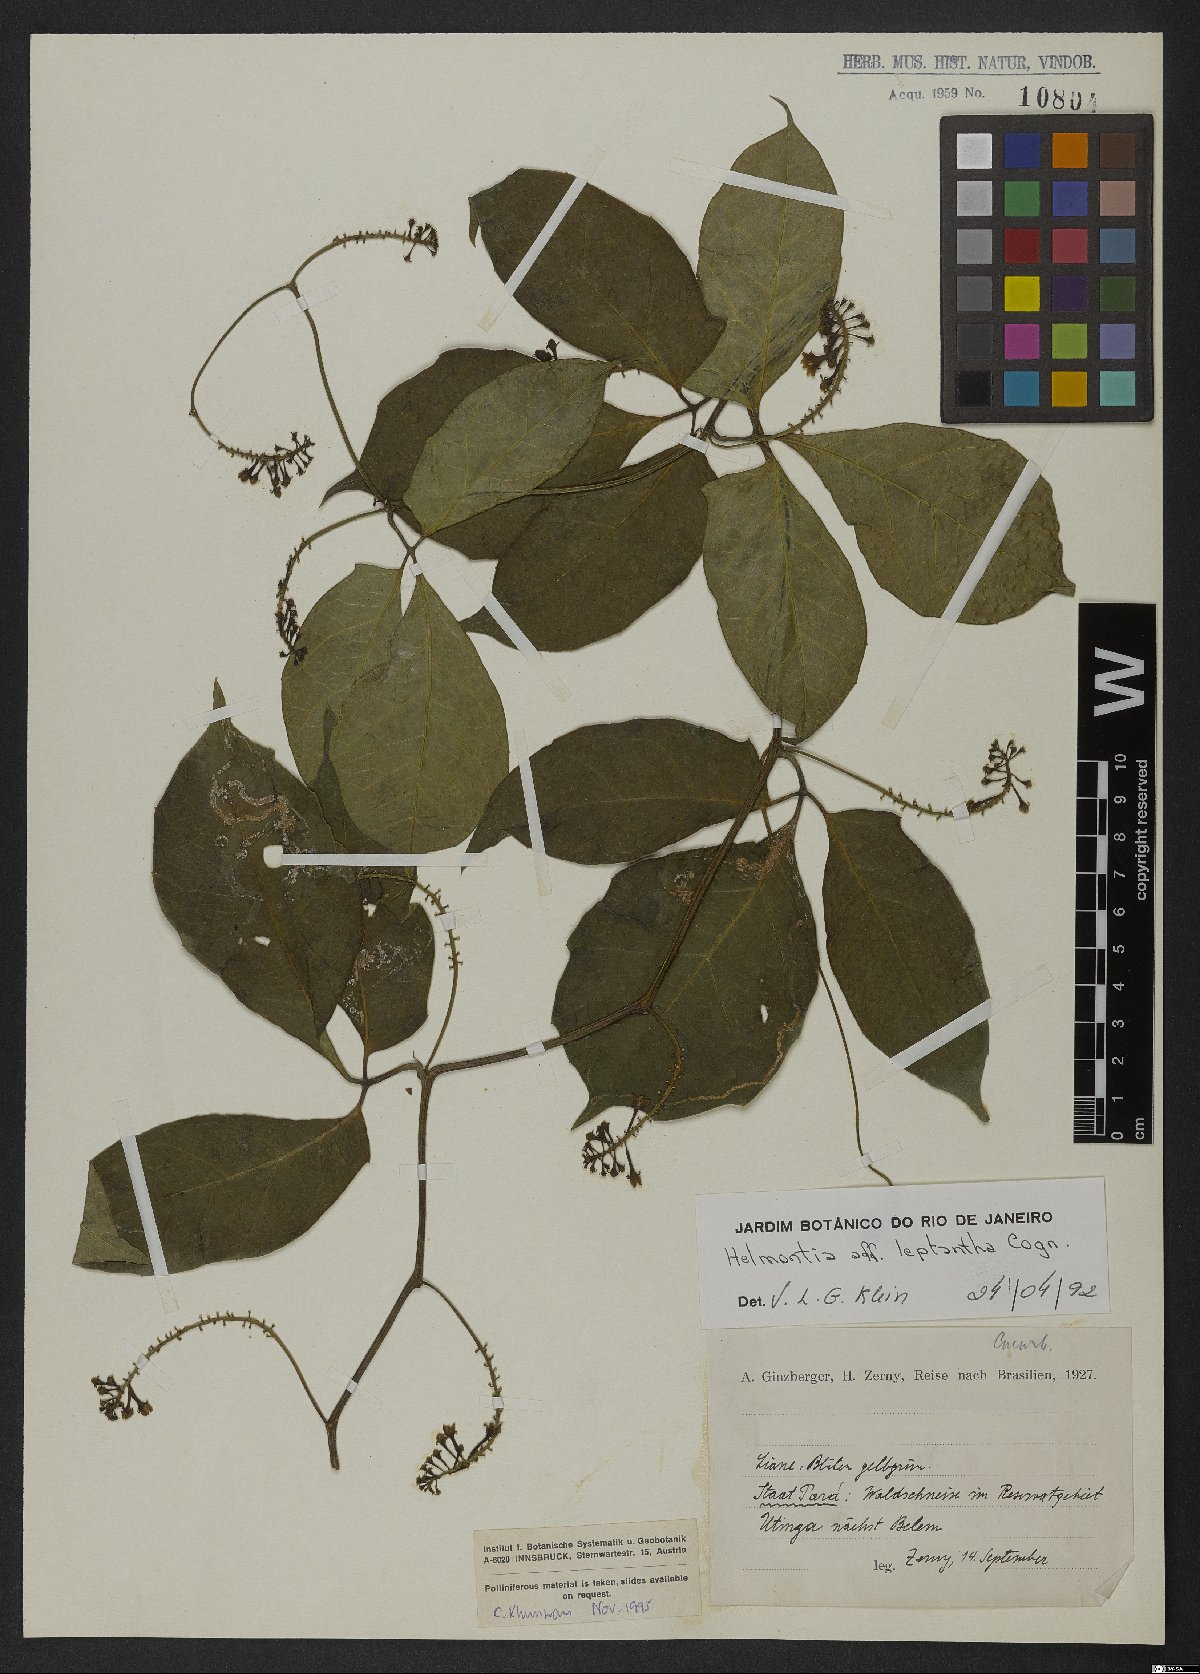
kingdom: Plantae
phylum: Tracheophyta
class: Magnoliopsida
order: Cucurbitales
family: Cucurbitaceae
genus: Helmontia
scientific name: Helmontia leptantha
